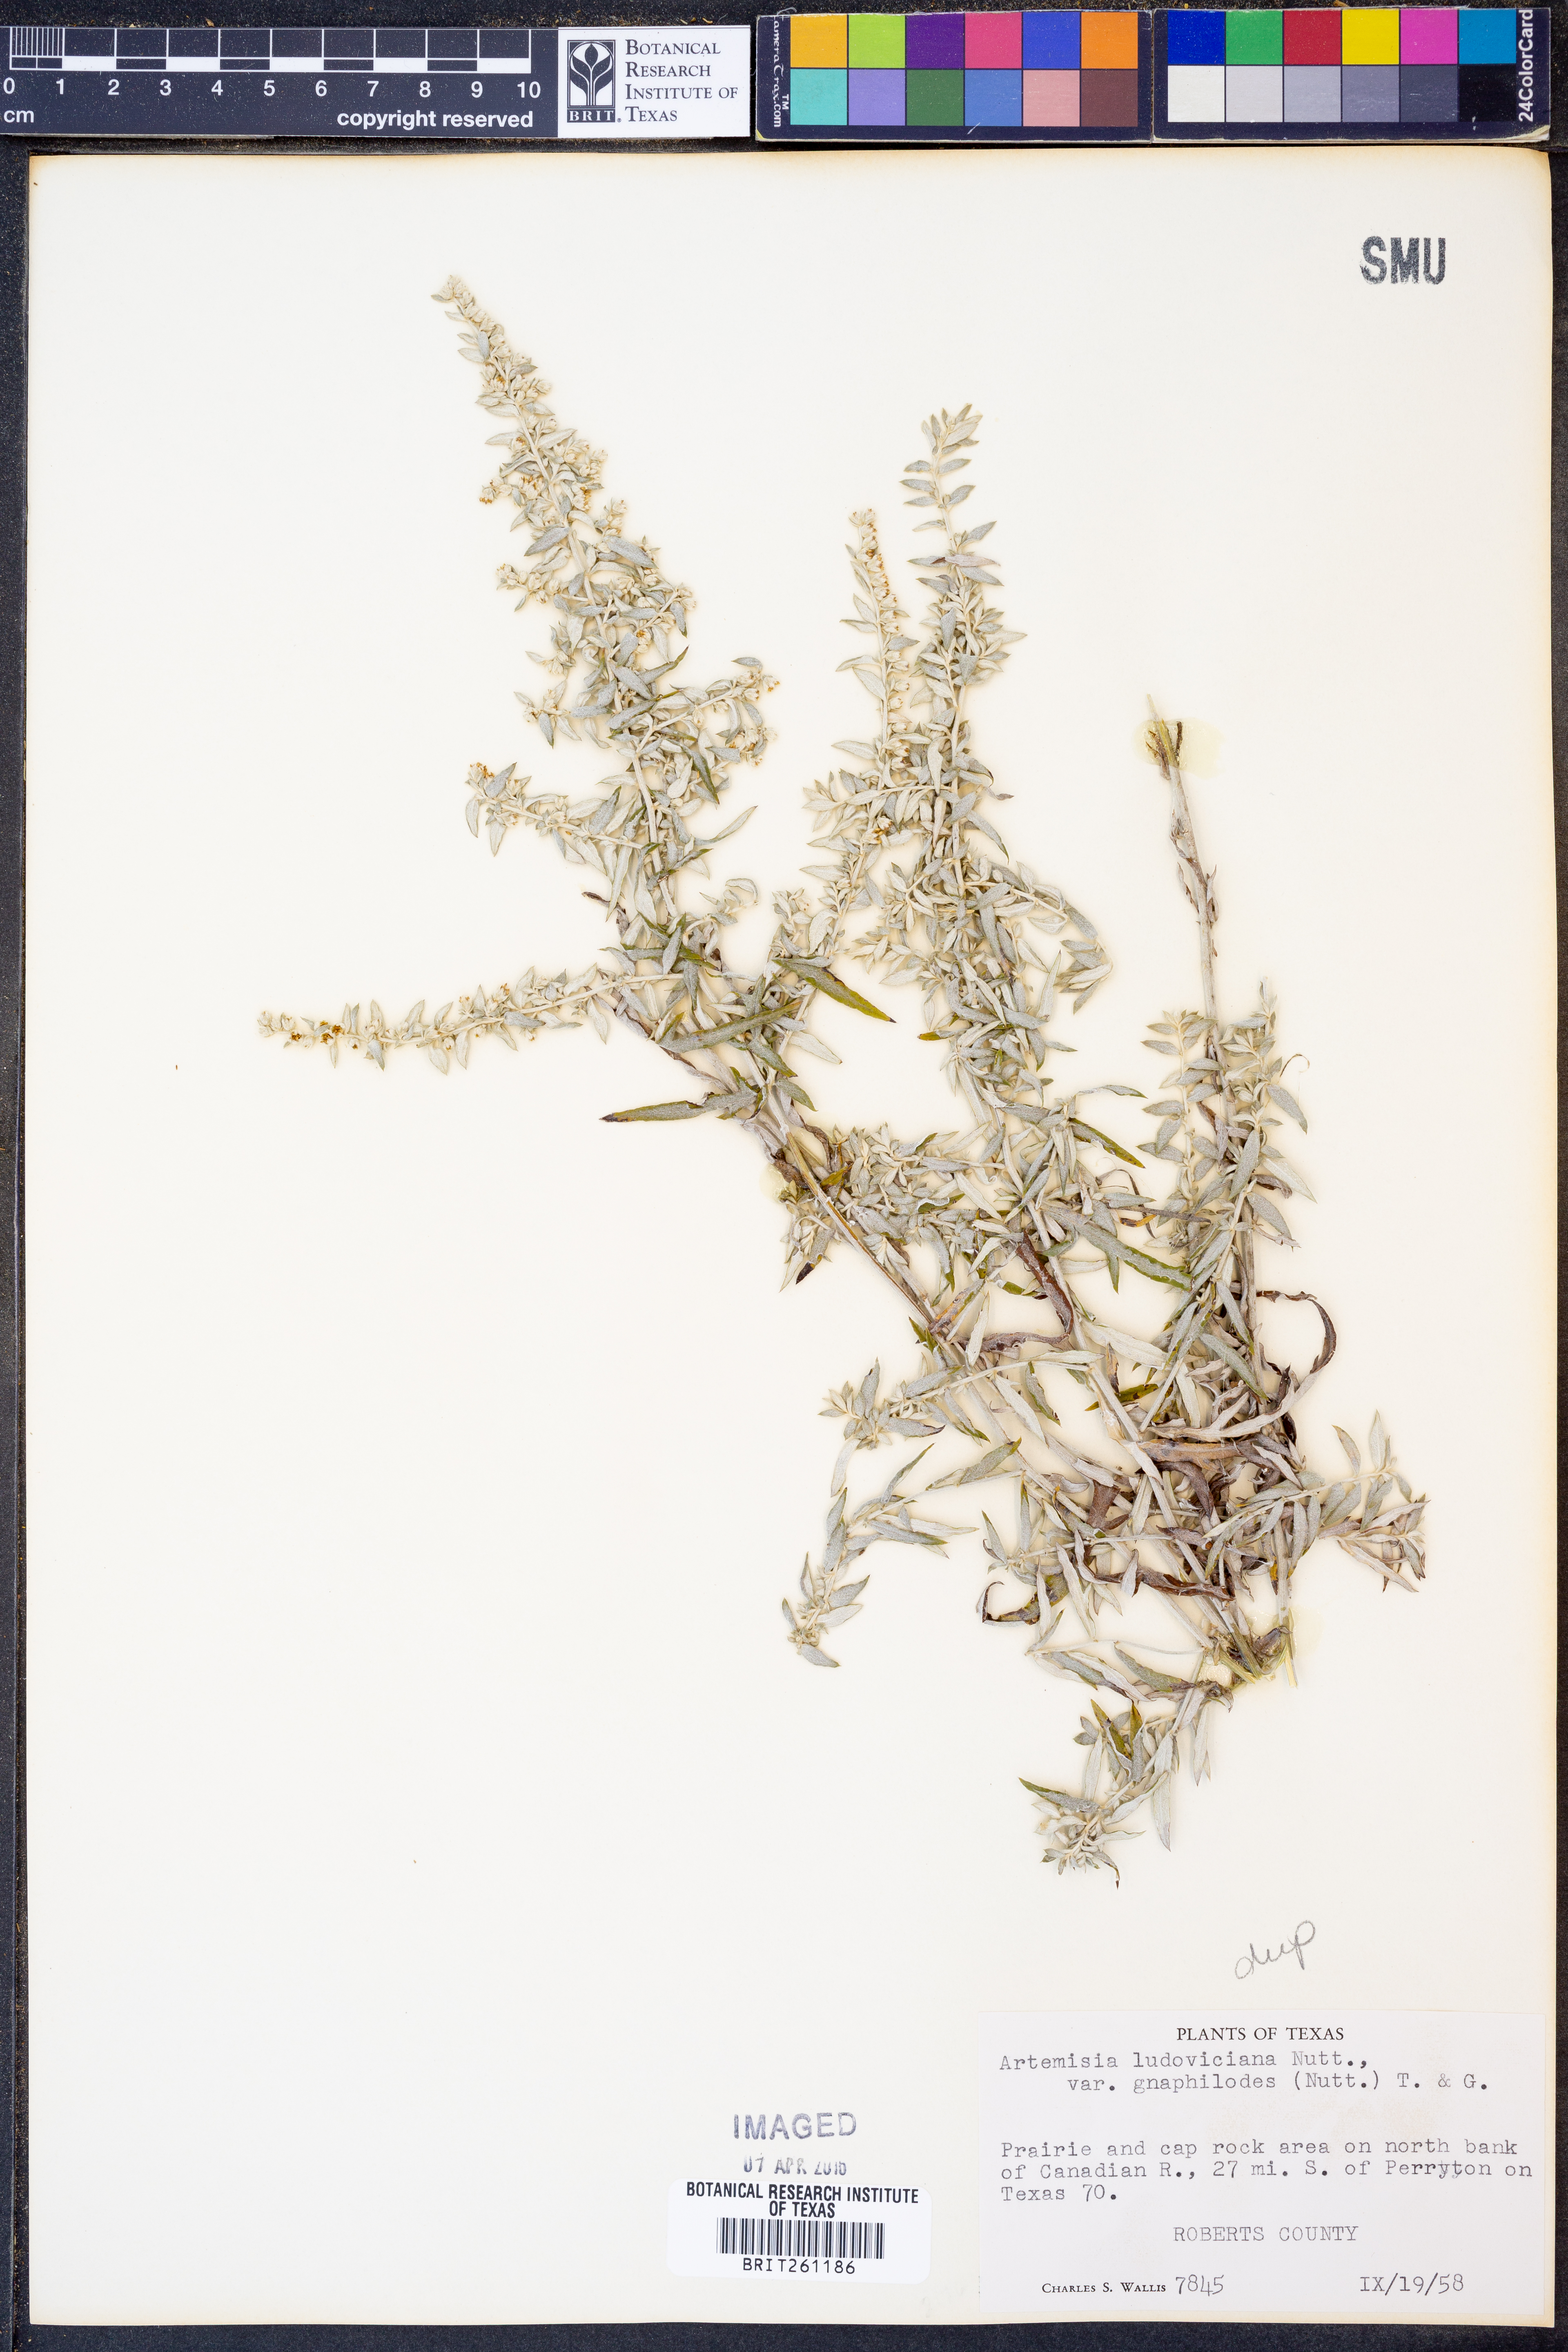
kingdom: Plantae
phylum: Tracheophyta
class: Magnoliopsida
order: Asterales
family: Asteraceae
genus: Artemisia
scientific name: Artemisia ludoviciana
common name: Western mugwort
